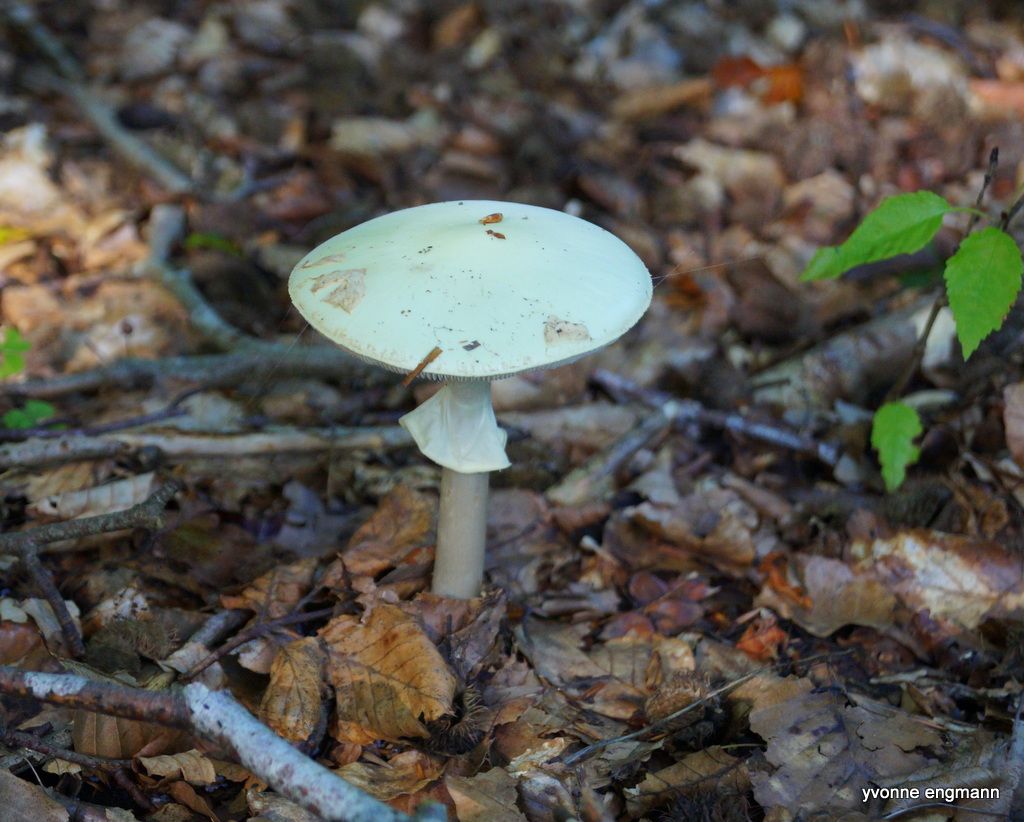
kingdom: Fungi
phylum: Basidiomycota
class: Agaricomycetes
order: Agaricales
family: Amanitaceae
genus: Amanita
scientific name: Amanita citrina
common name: kugleknoldet fluesvamp
